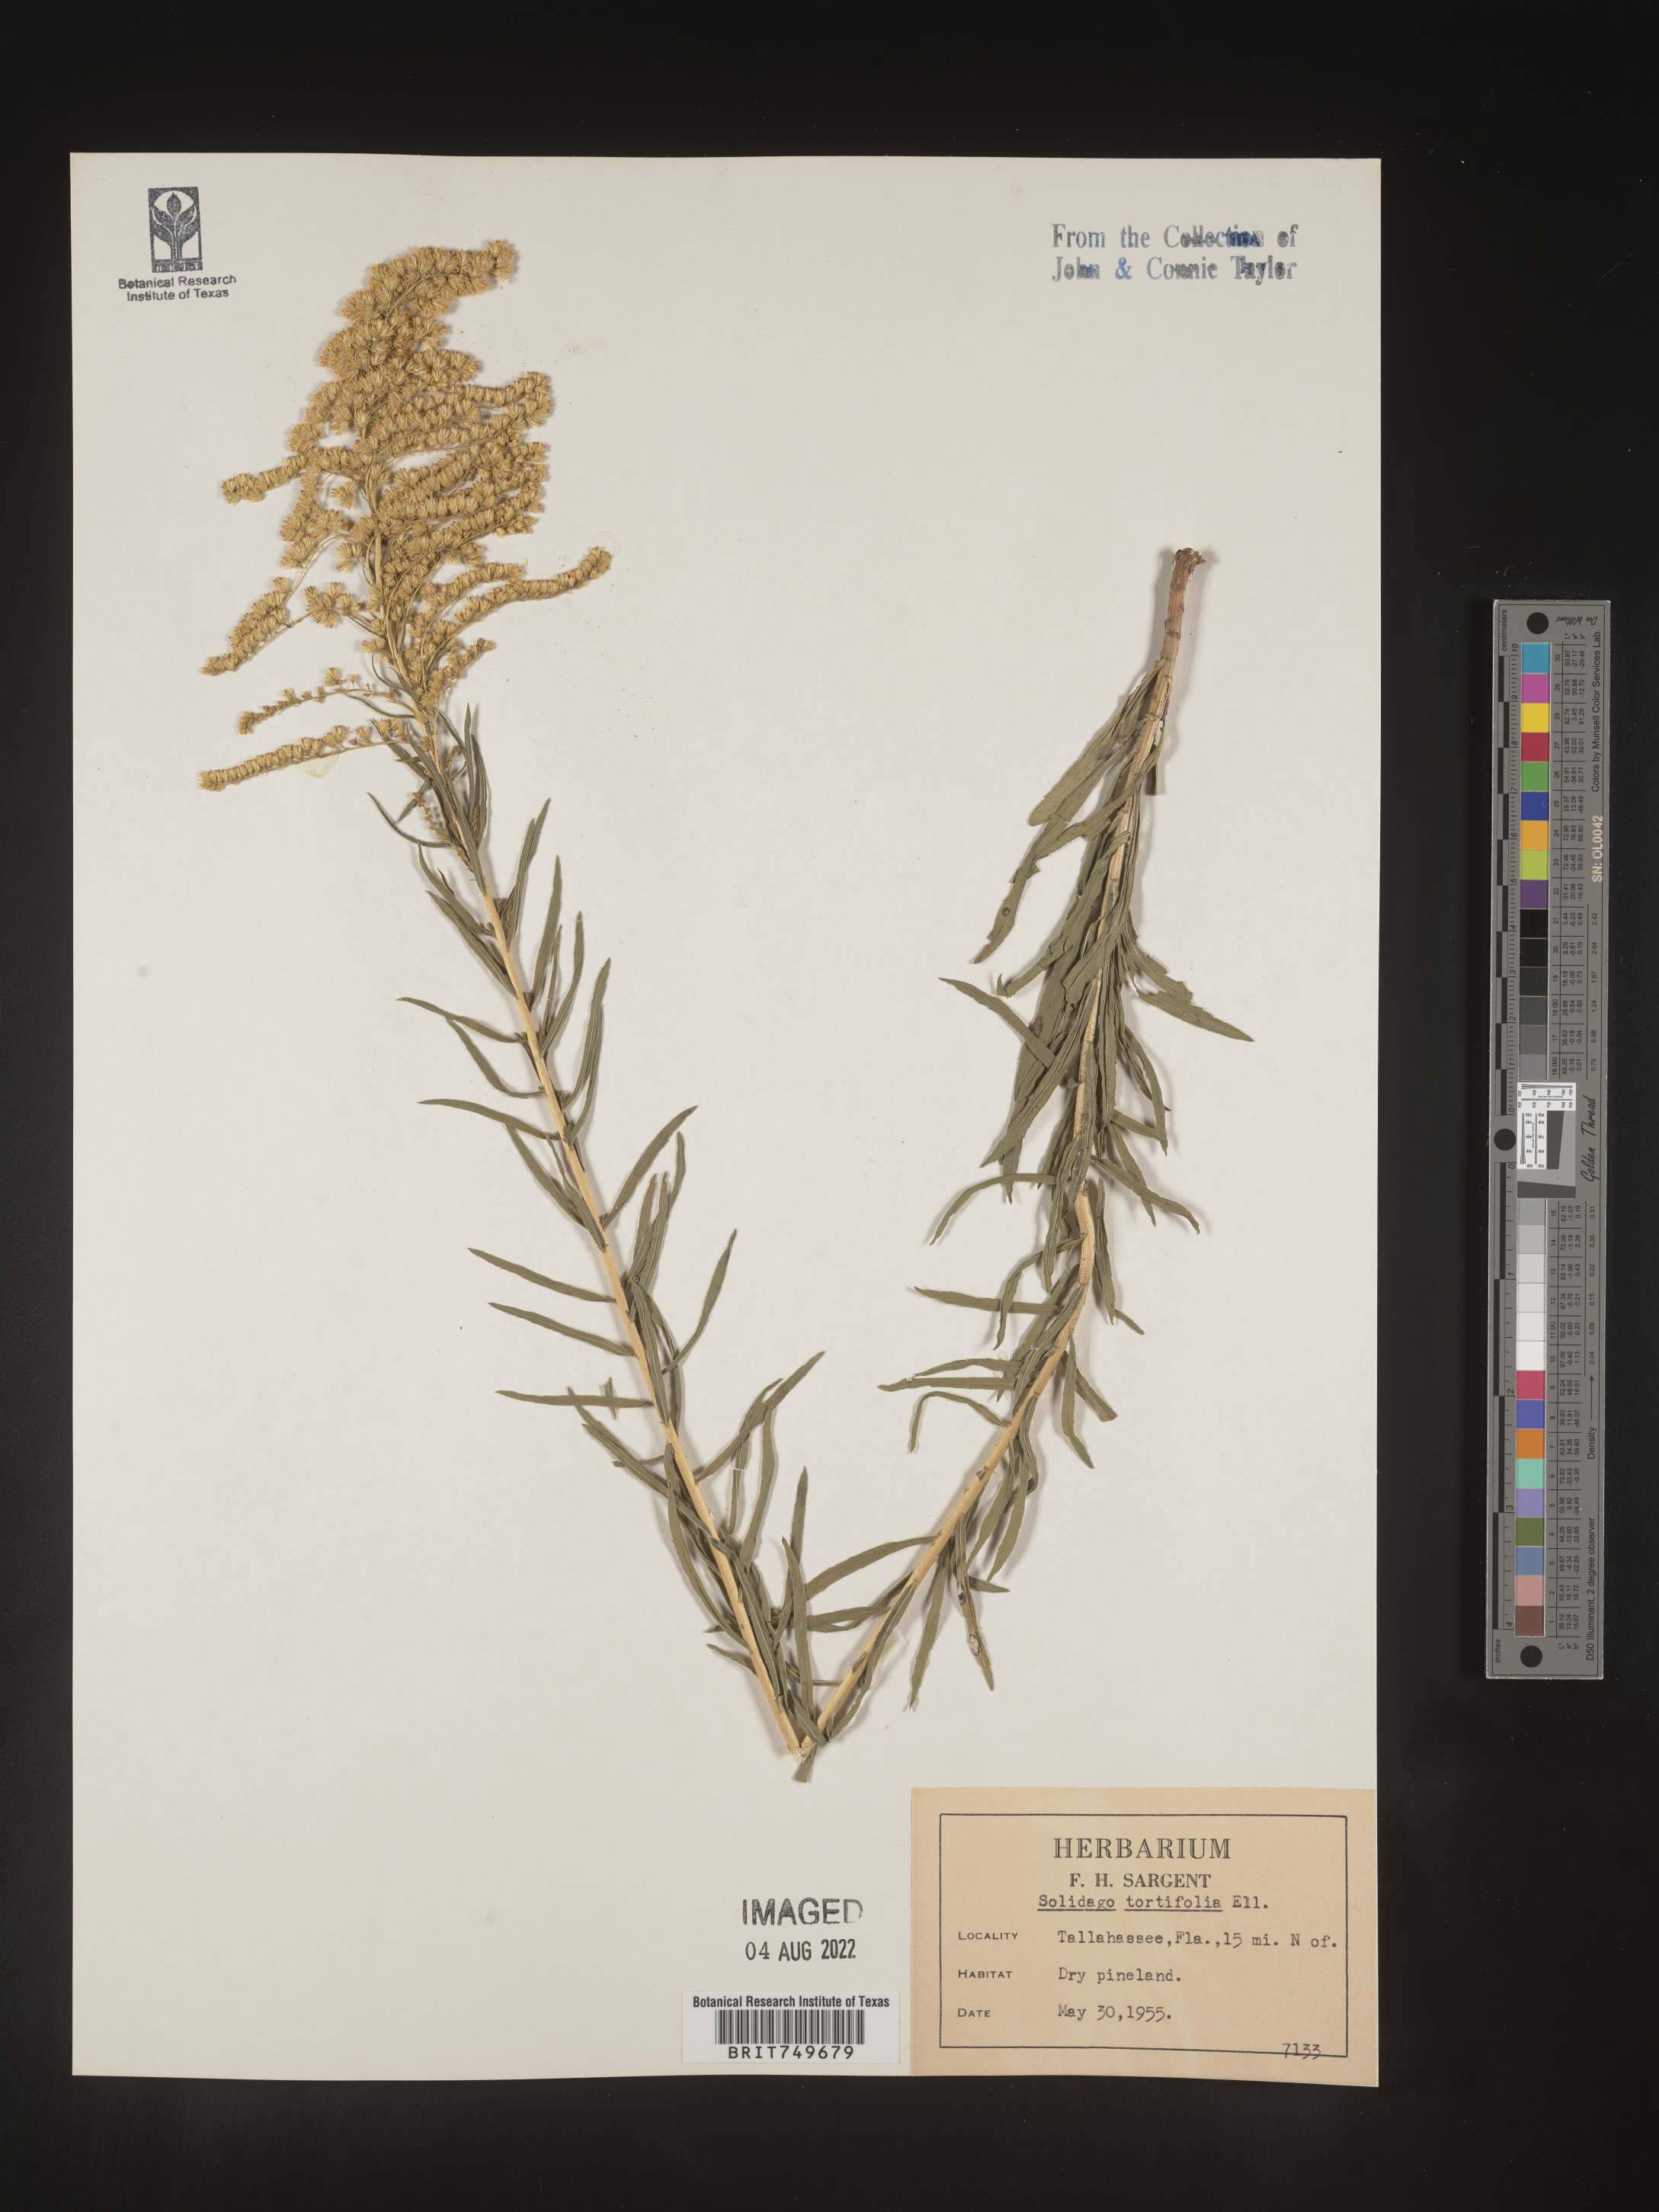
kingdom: Plantae
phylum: Tracheophyta
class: Magnoliopsida
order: Asterales
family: Asteraceae
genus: Solidago
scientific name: Solidago tortifolia
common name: Twisted-leaf goldenrod
